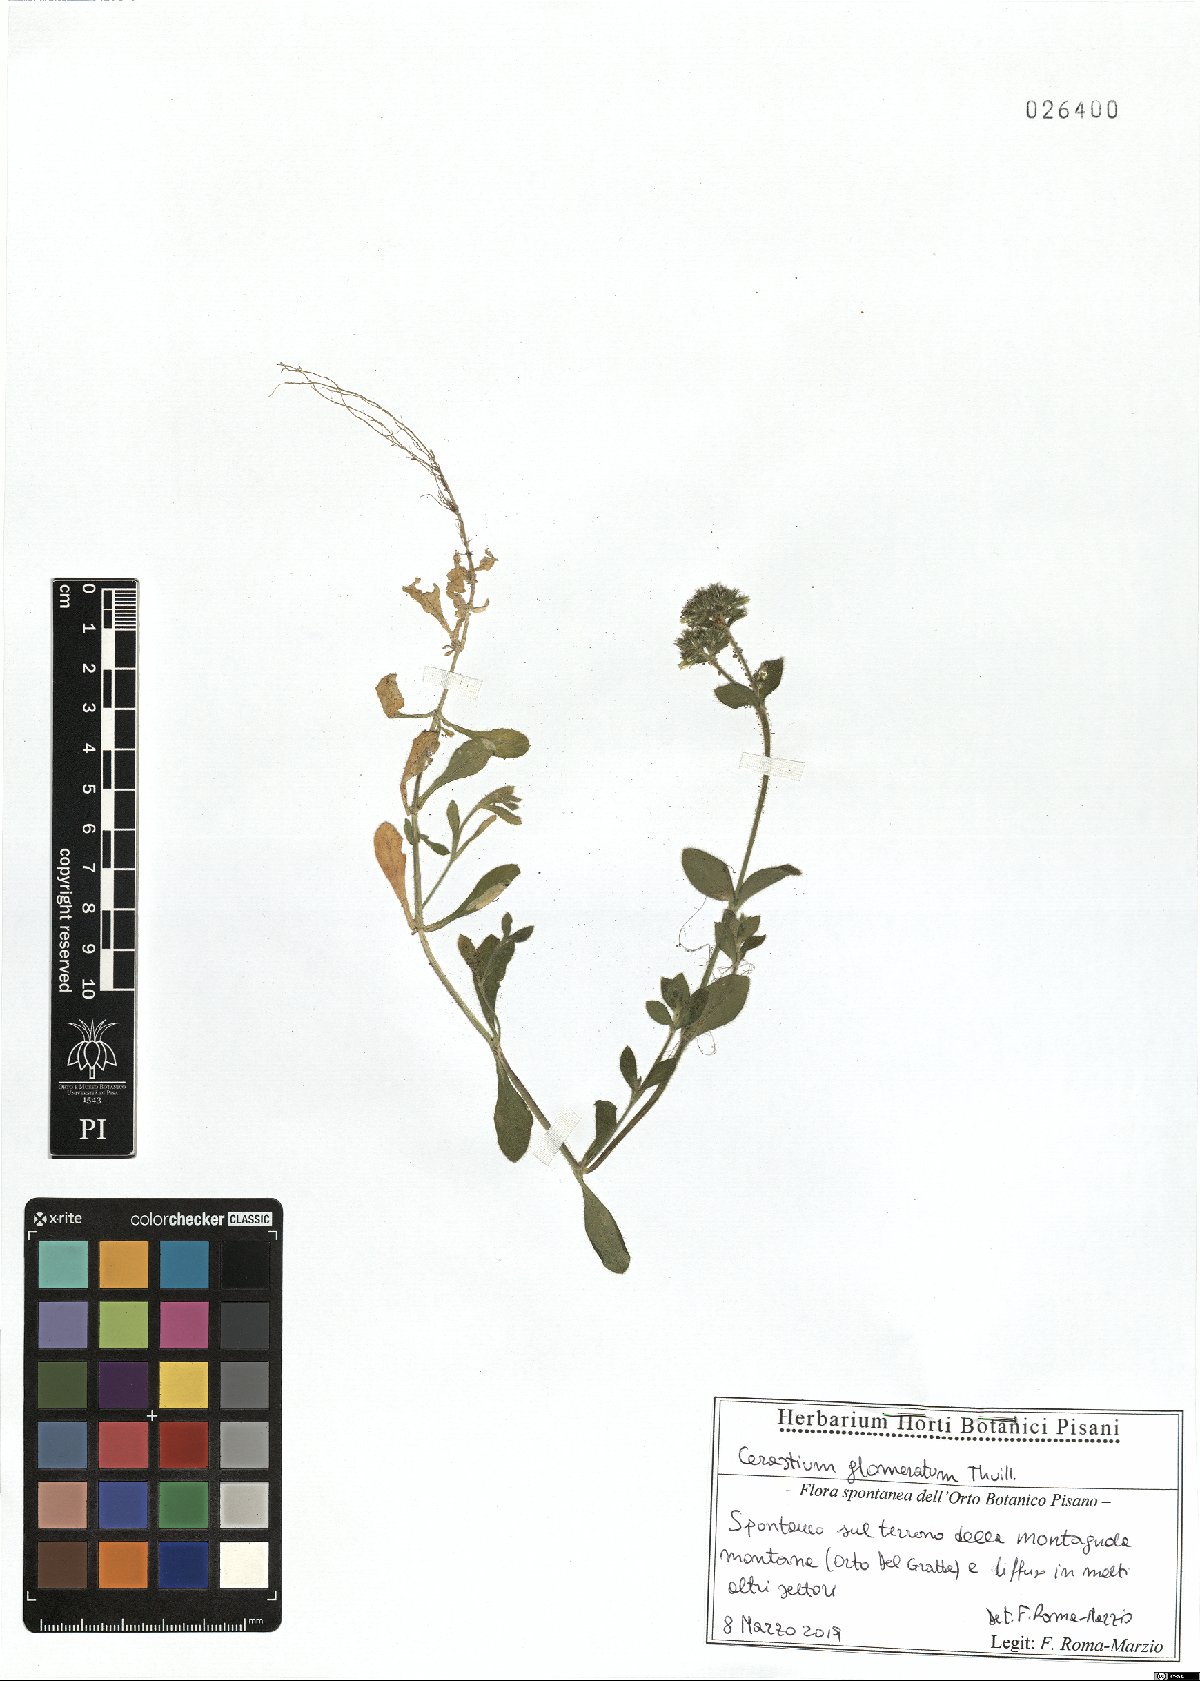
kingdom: Plantae
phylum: Tracheophyta
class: Magnoliopsida
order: Caryophyllales
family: Caryophyllaceae
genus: Cerastium
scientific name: Cerastium glomeratum
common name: Sticky chickweed
